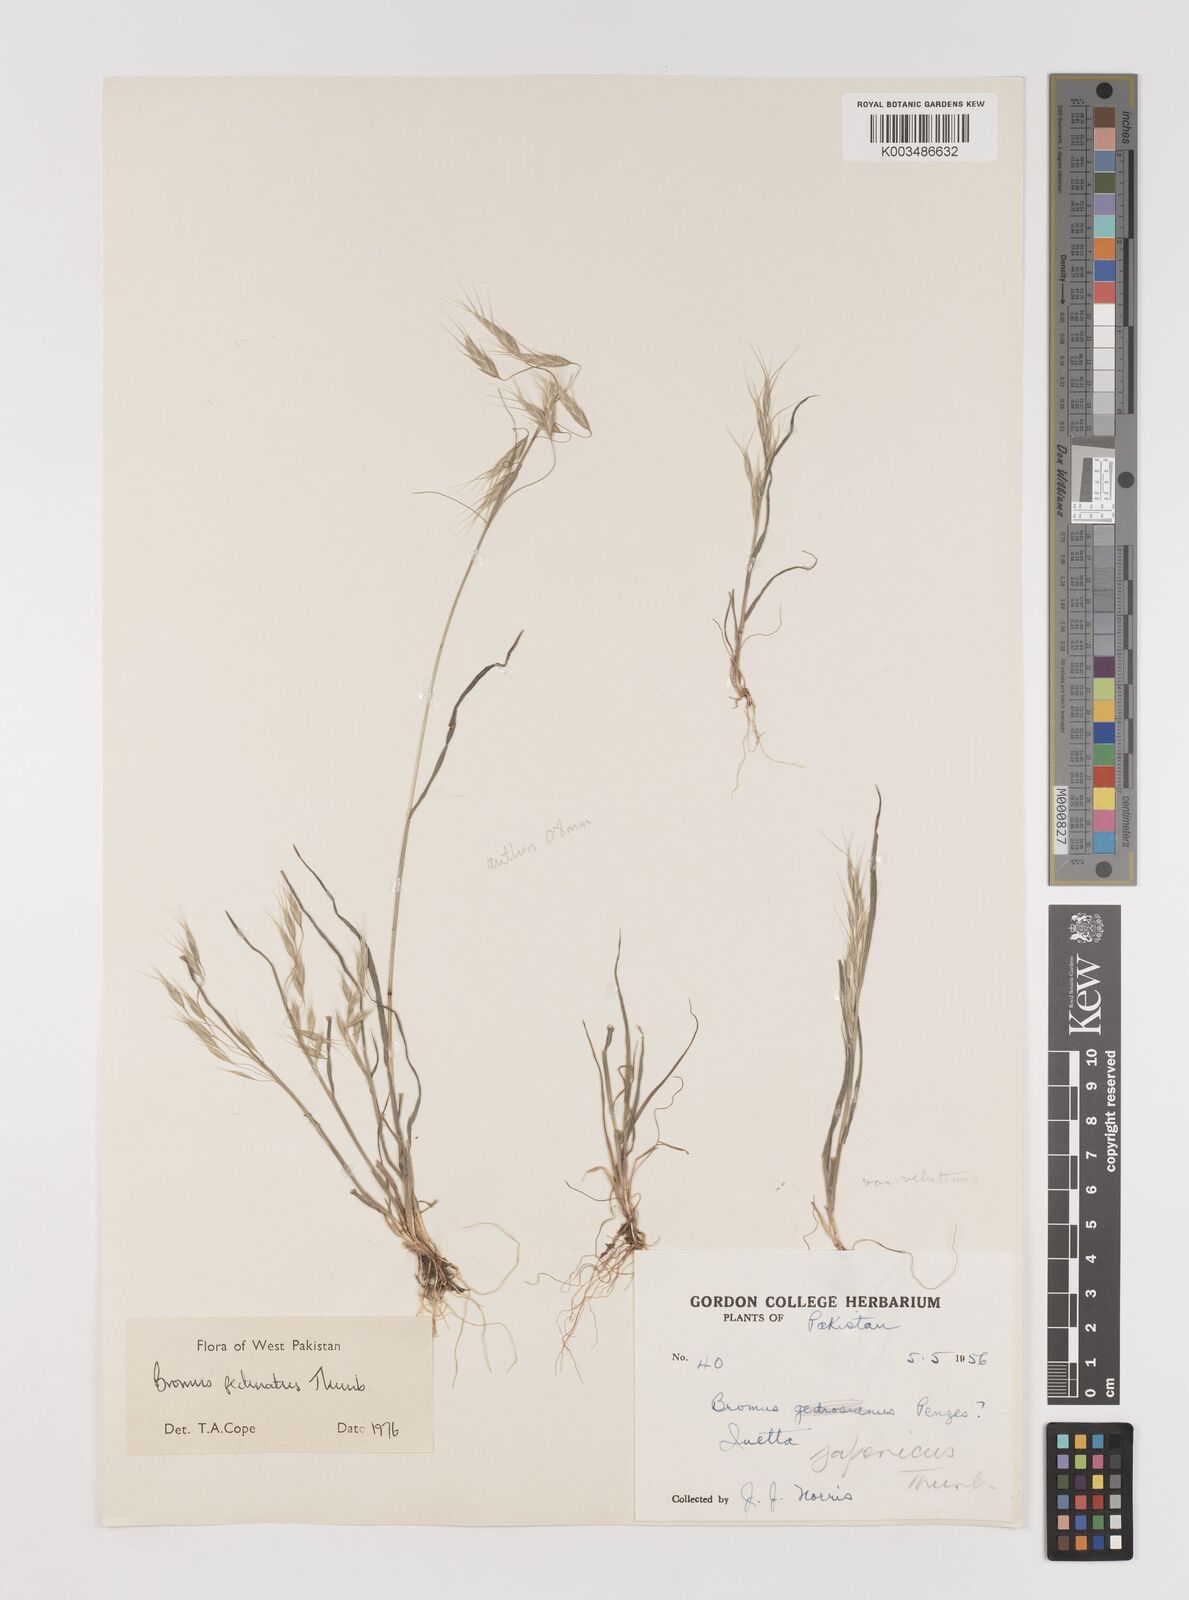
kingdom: Plantae
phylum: Tracheophyta
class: Liliopsida
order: Poales
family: Poaceae
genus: Bromus
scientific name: Bromus pectinatus
